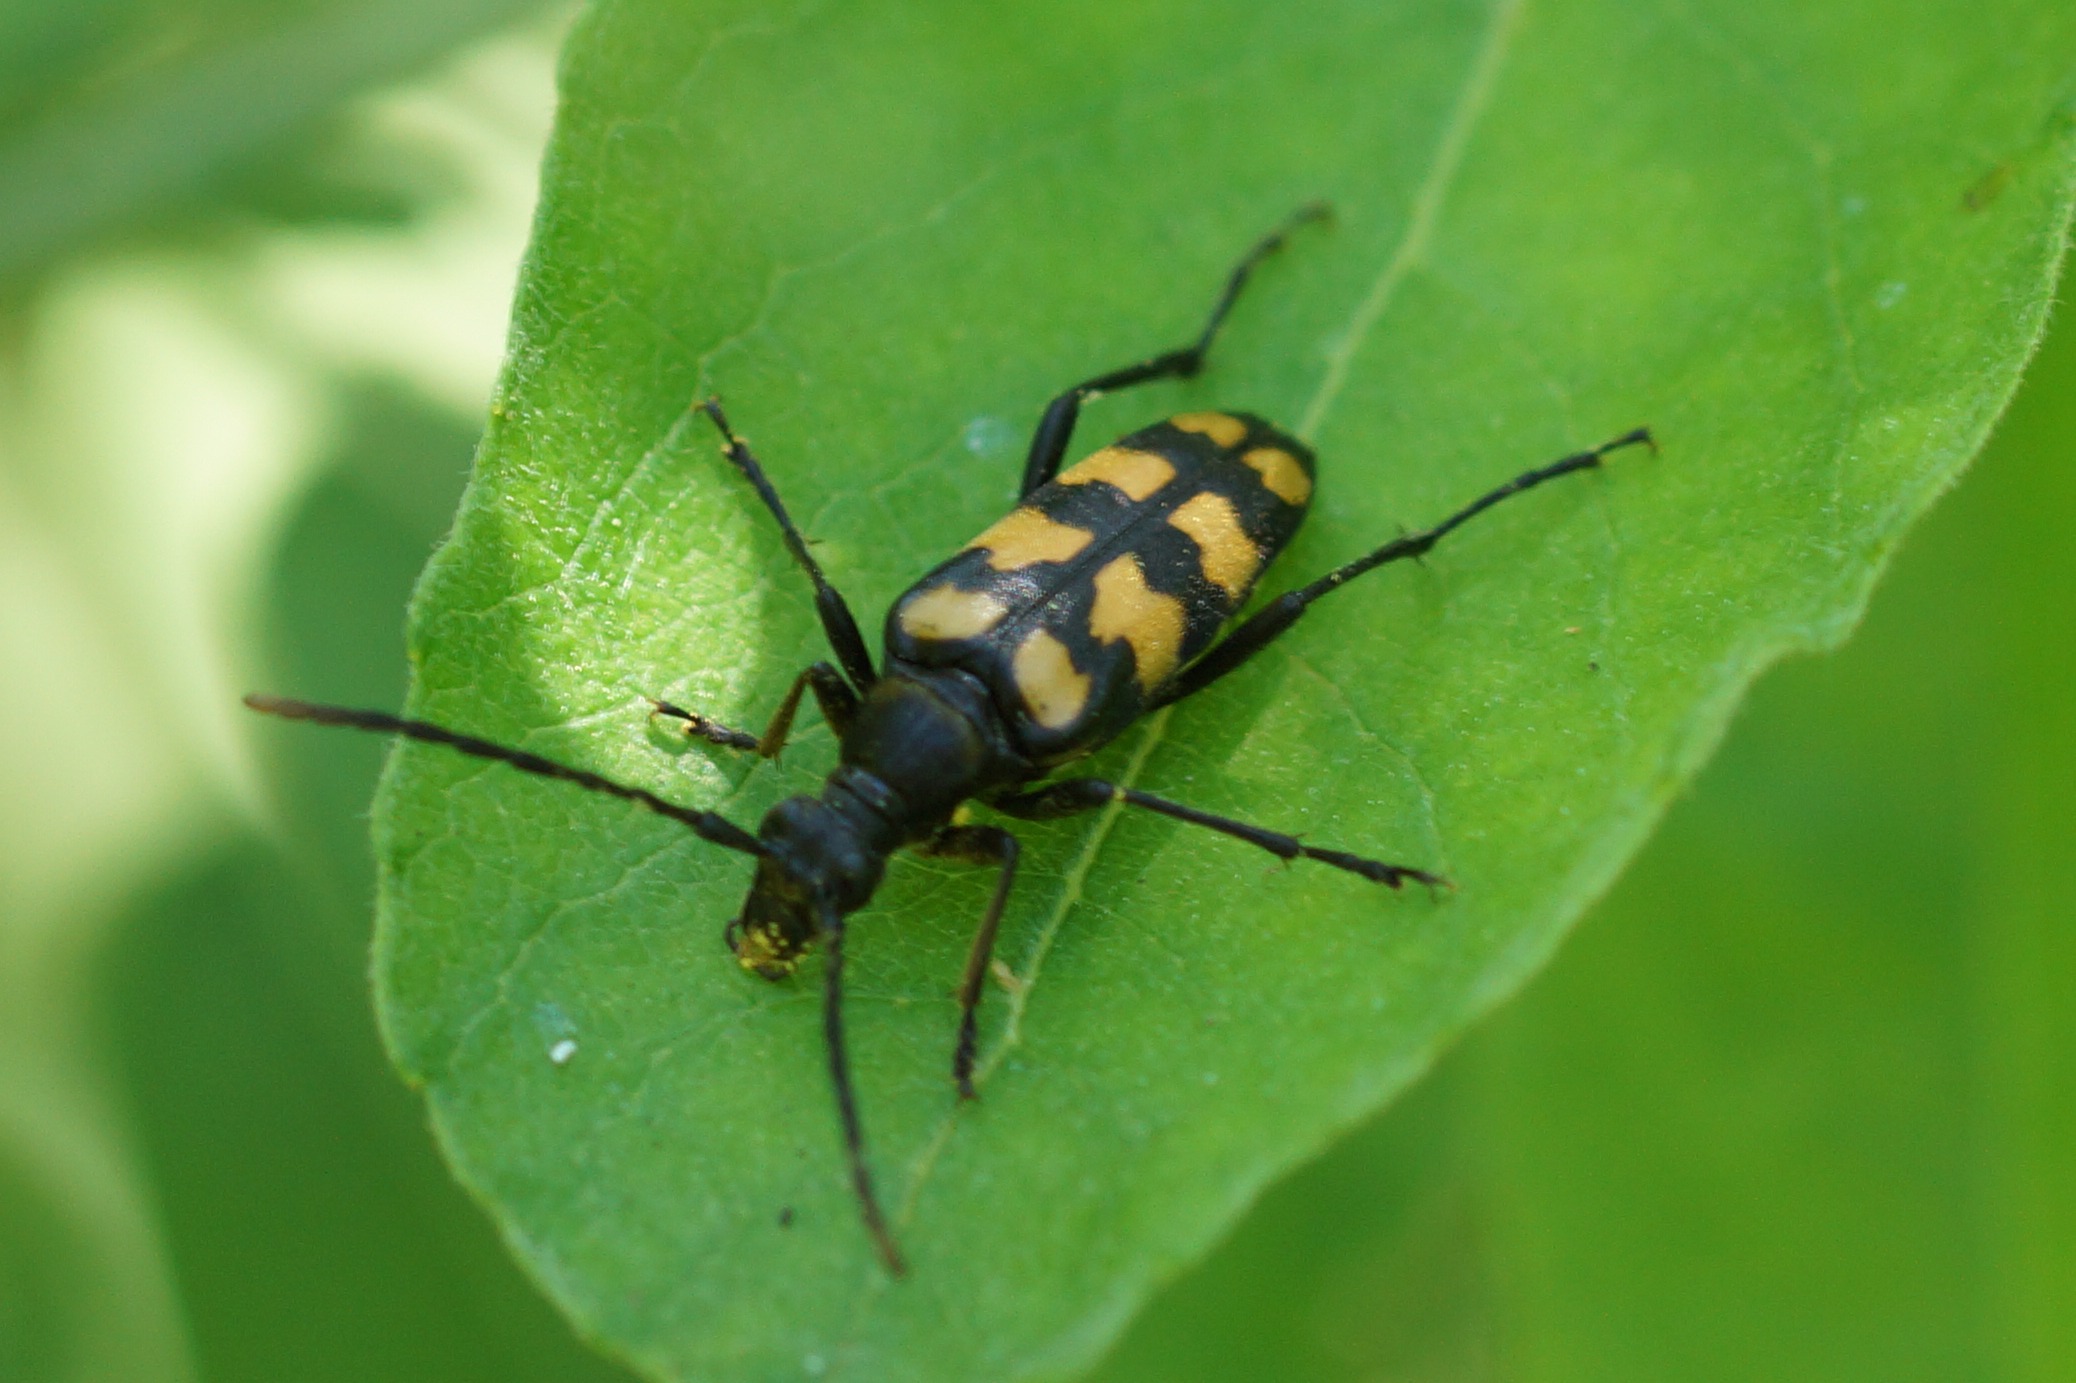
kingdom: Animalia
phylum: Arthropoda
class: Insecta
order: Coleoptera
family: Cerambycidae
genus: Leptura
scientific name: Leptura quadrifasciata
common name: Firebåndet blomsterbuk
